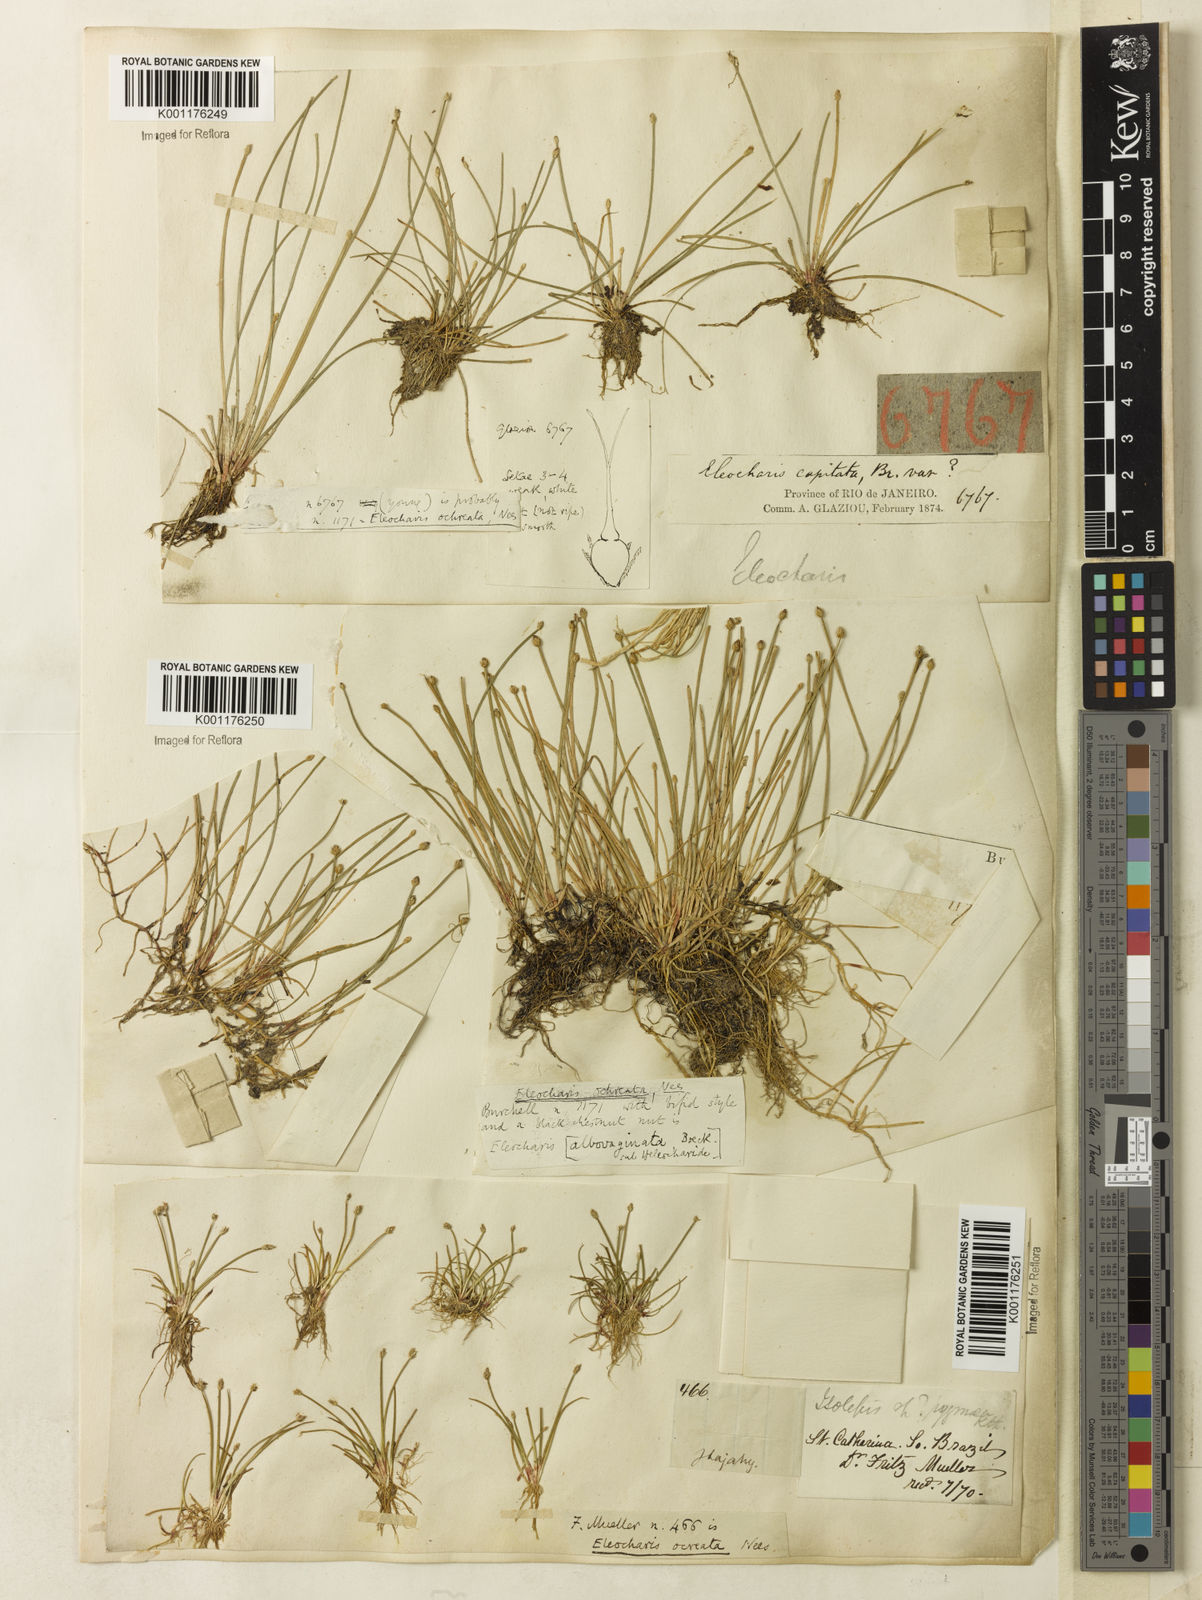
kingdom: Plantae
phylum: Tracheophyta
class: Liliopsida
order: Poales
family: Cyperaceae
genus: Eleocharis
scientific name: Eleocharis flavescens
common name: Yellow spikerush
